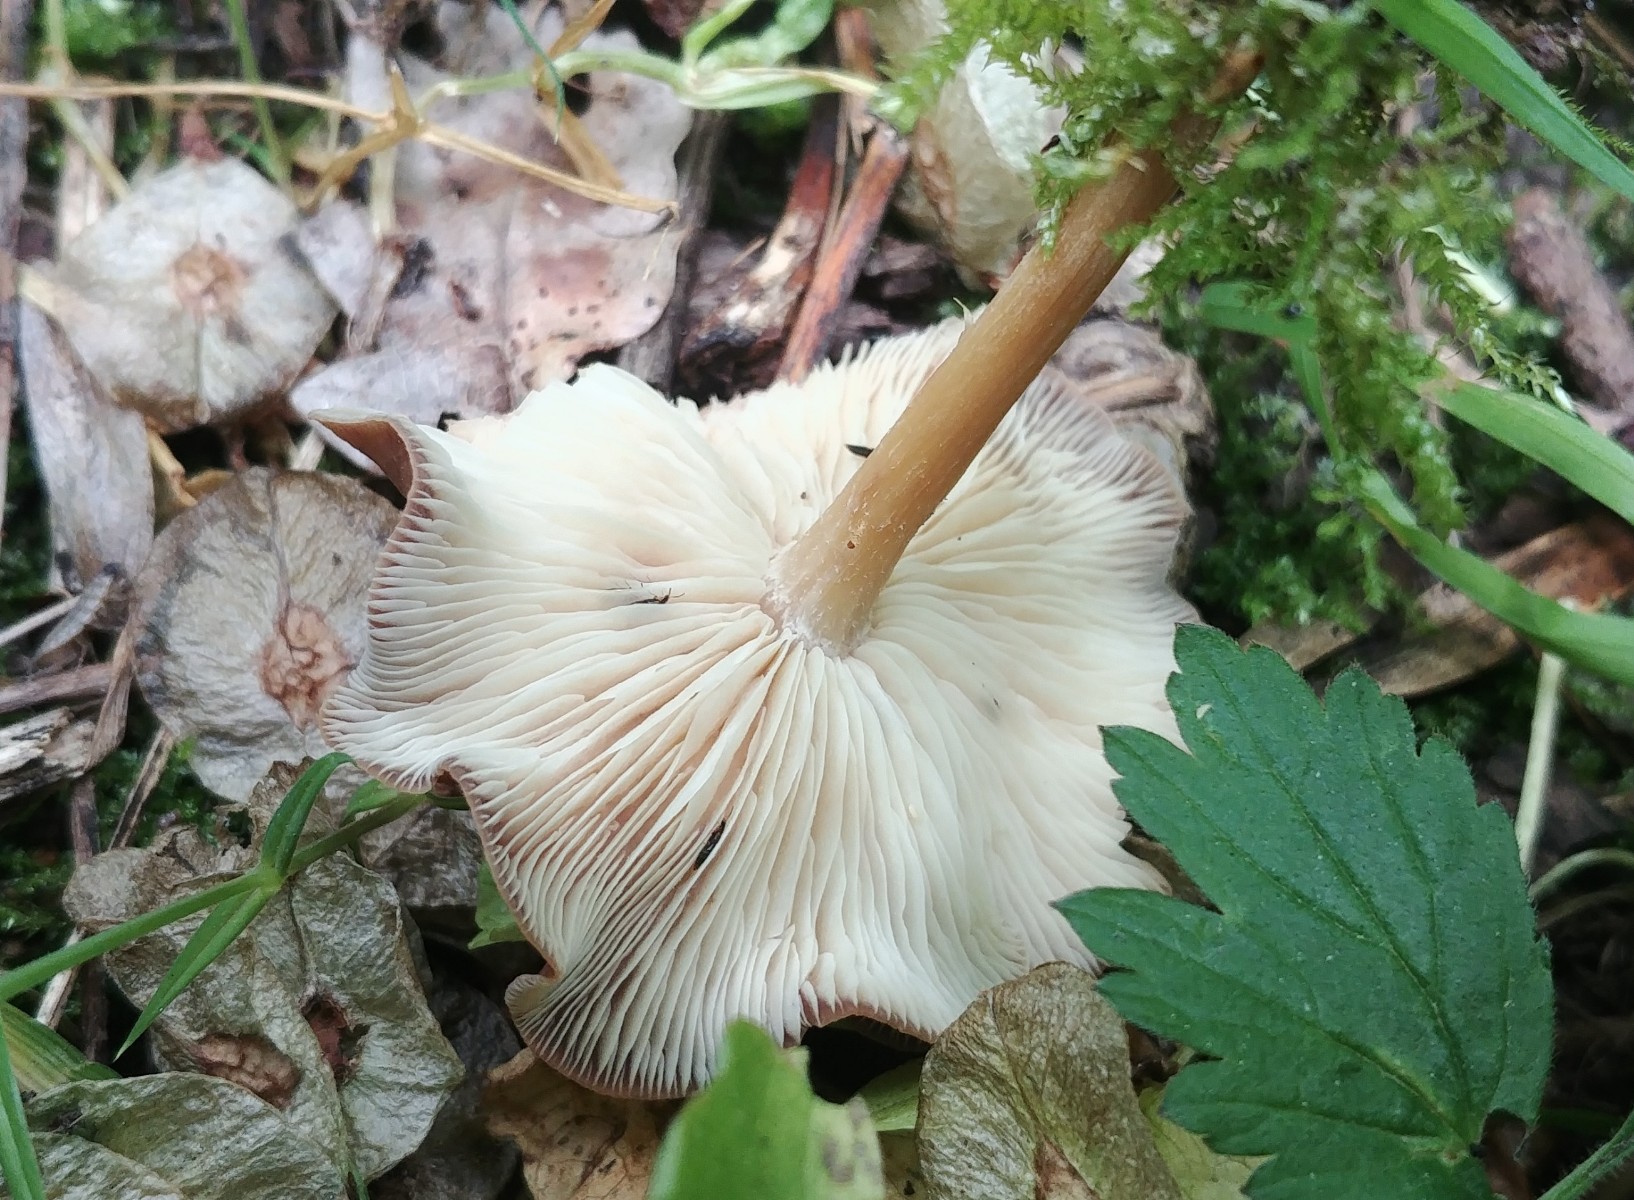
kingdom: Fungi
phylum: Basidiomycota
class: Agaricomycetes
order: Agaricales
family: Omphalotaceae
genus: Gymnopus
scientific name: Gymnopus ocior
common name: mørk fladhat
